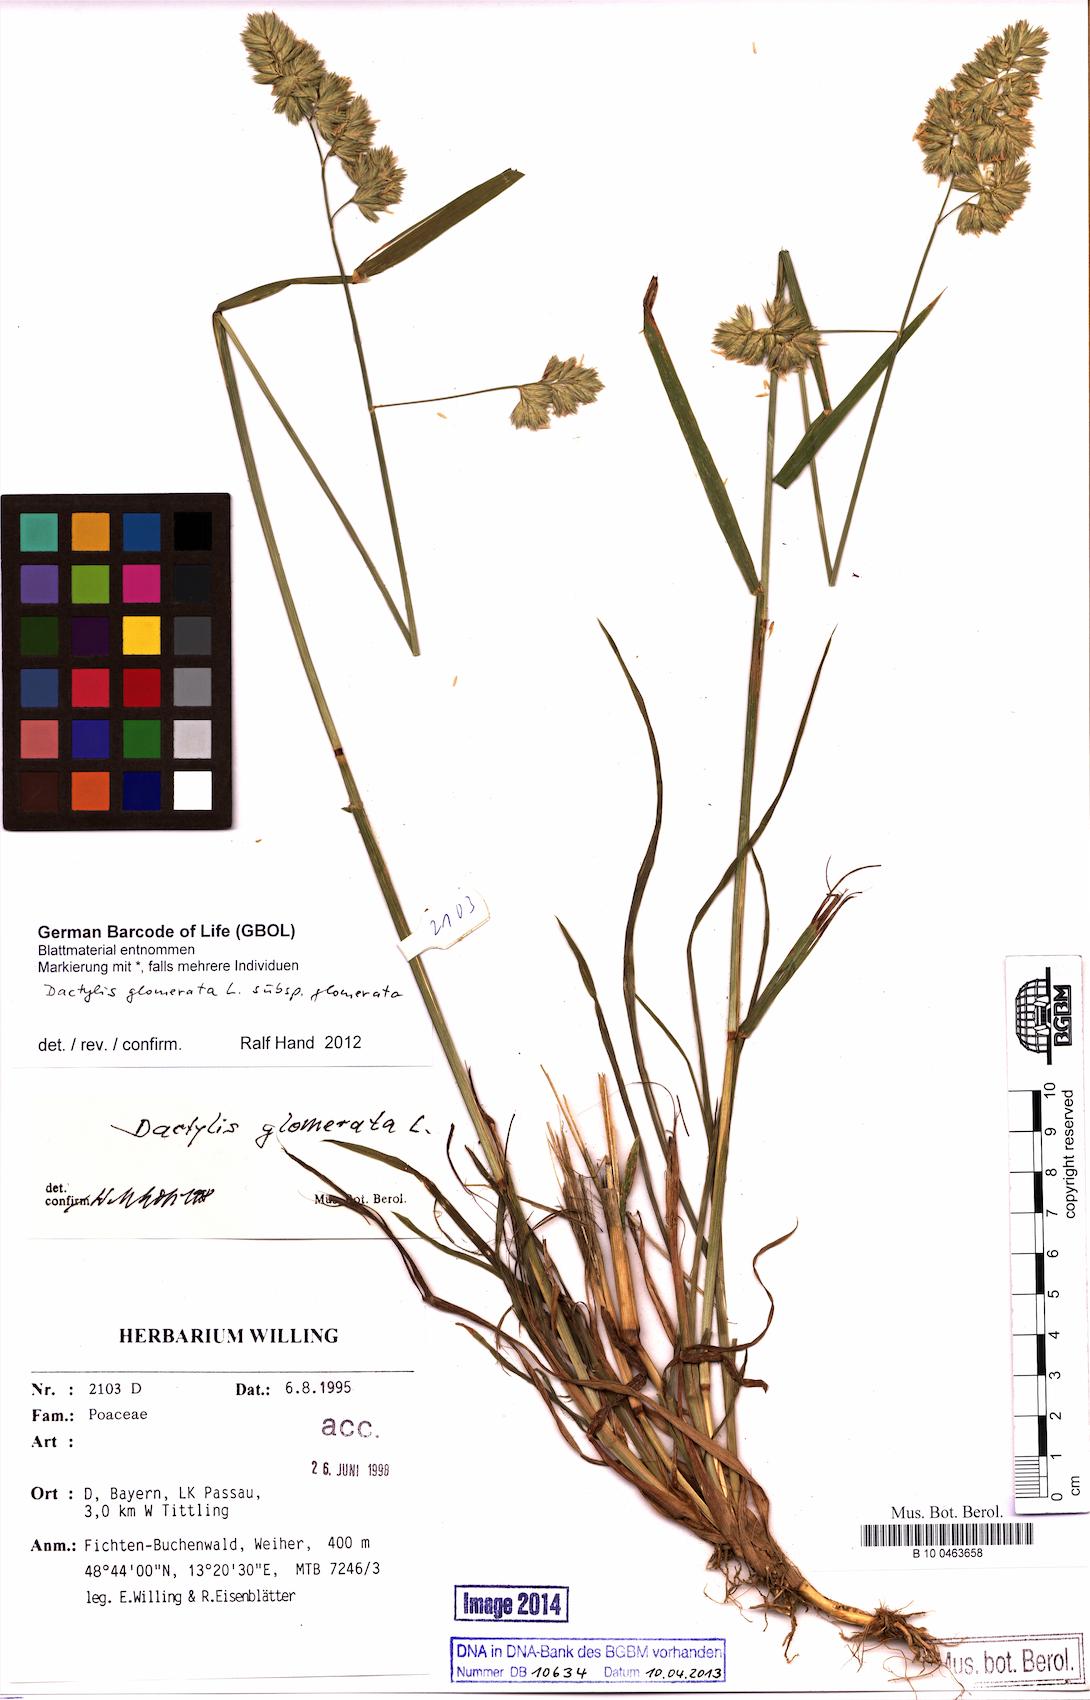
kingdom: Plantae
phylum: Tracheophyta
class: Liliopsida
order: Poales
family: Poaceae
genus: Dactylis
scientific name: Dactylis glomerata
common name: Orchardgrass
